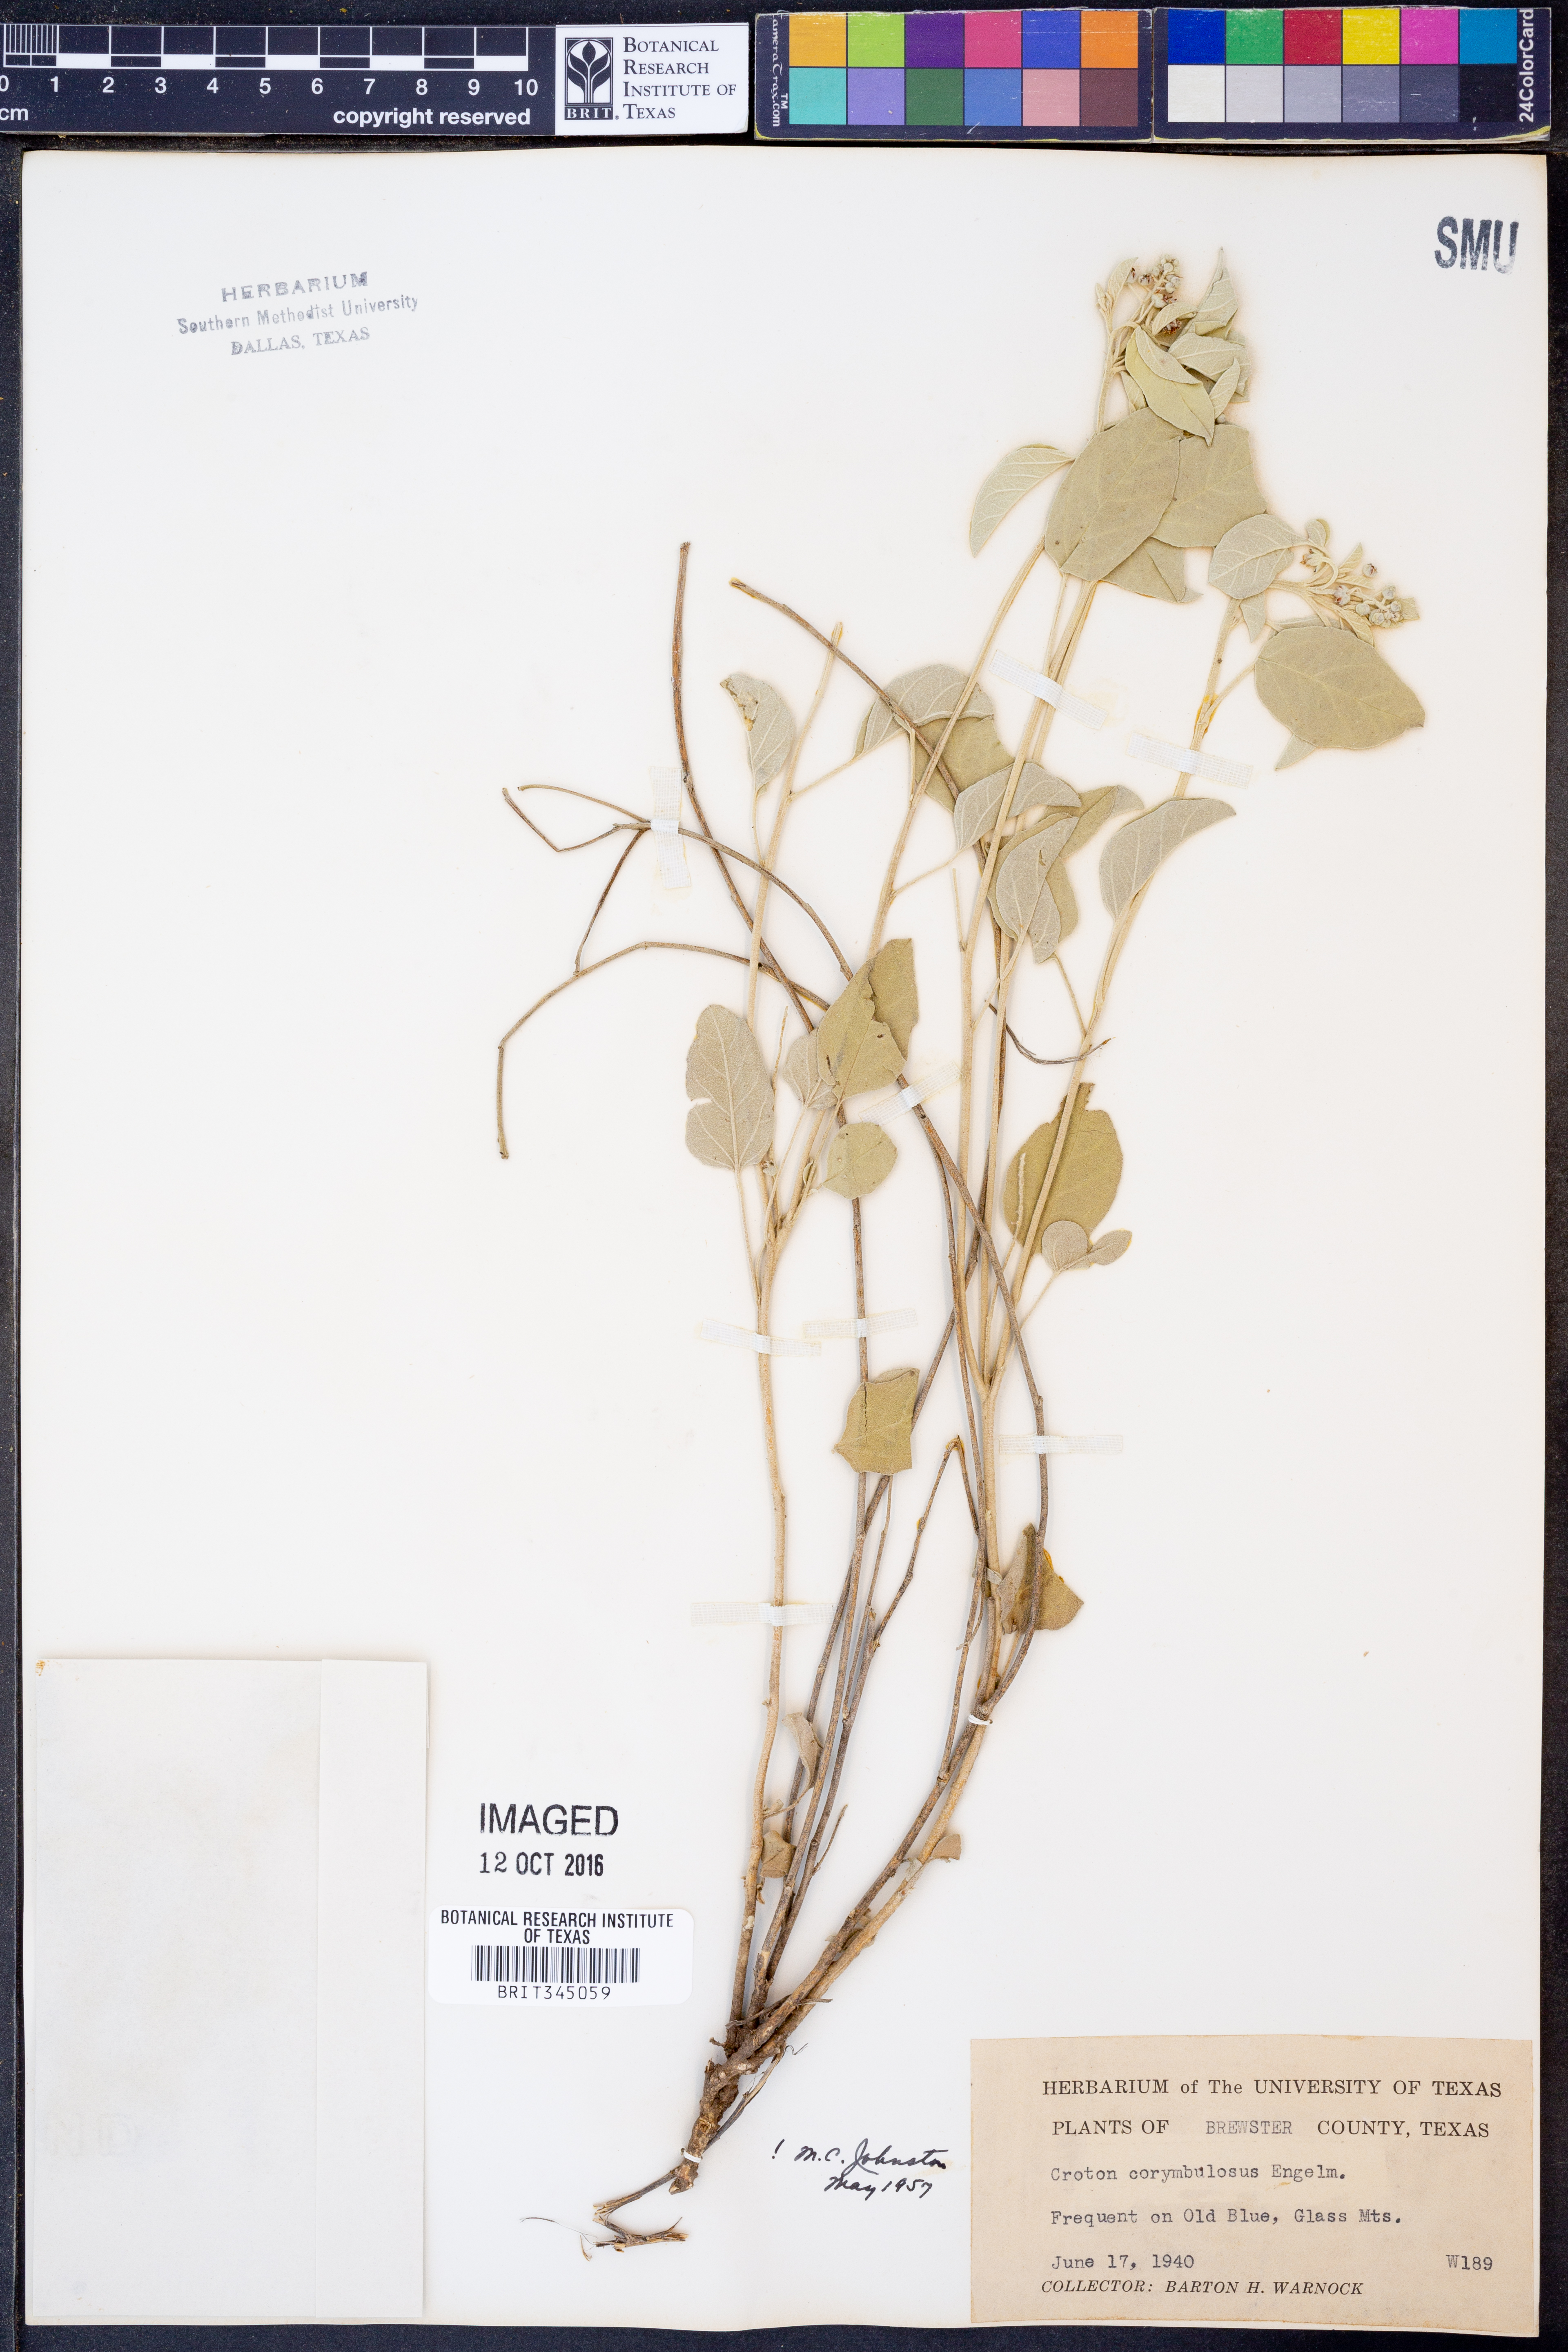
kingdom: Plantae
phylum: Tracheophyta
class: Magnoliopsida
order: Malpighiales
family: Euphorbiaceae
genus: Croton
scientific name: Croton pottsii
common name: Leatherweed
